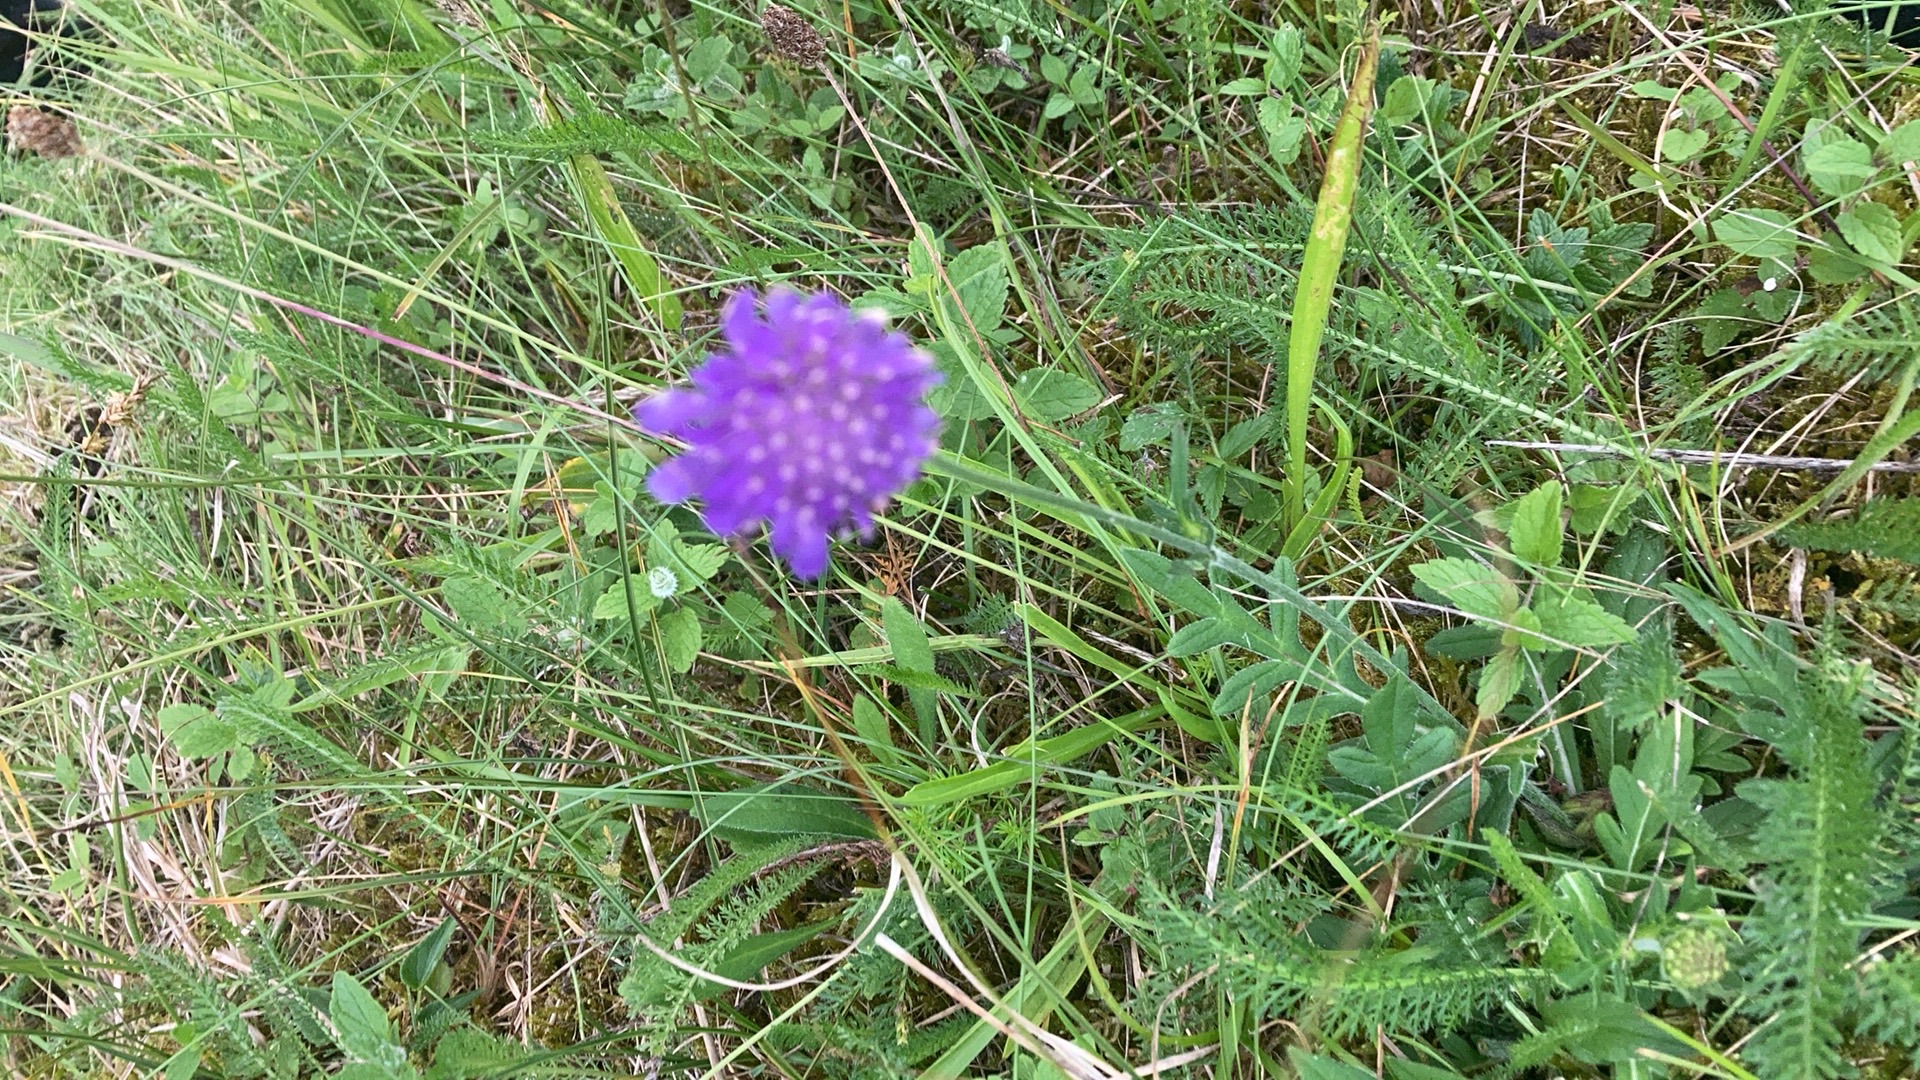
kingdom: Plantae
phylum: Tracheophyta
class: Magnoliopsida
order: Dipsacales
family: Caprifoliaceae
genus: Knautia
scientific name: Knautia arvensis
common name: Blåhat
